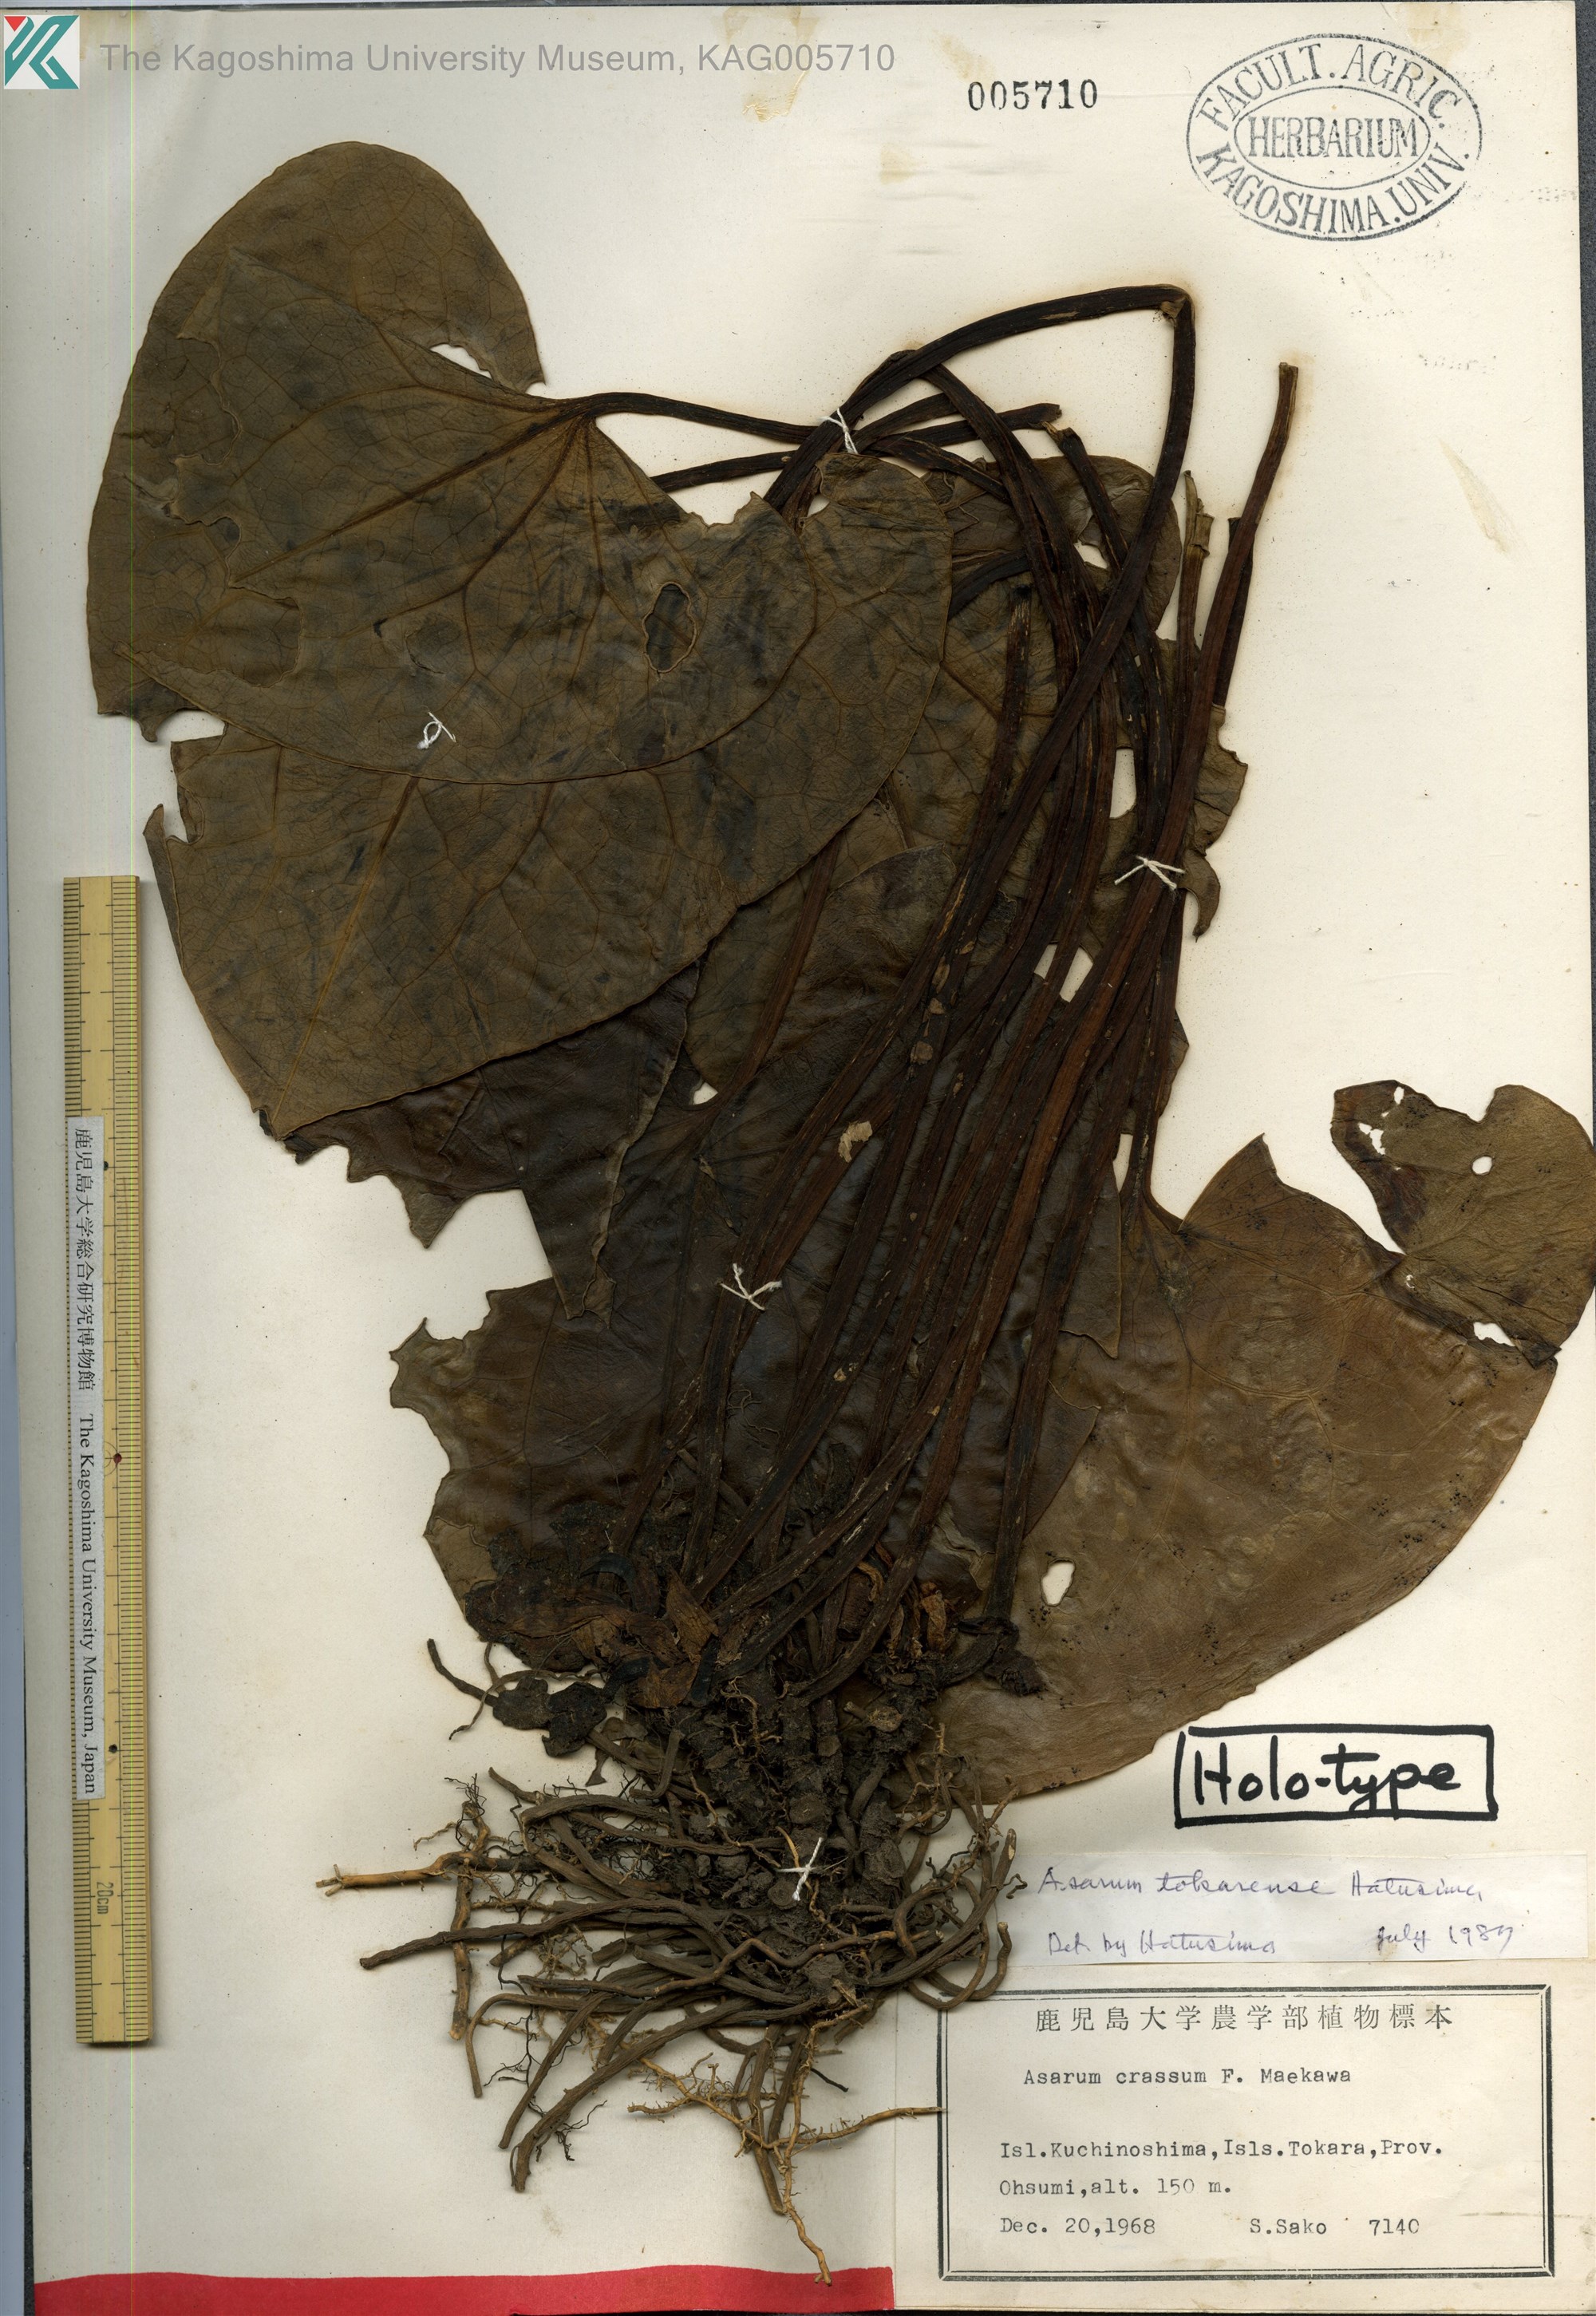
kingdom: Plantae
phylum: Tracheophyta
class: Magnoliopsida
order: Piperales
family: Aristolochiaceae
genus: Asarum
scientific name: Asarum tokarense
